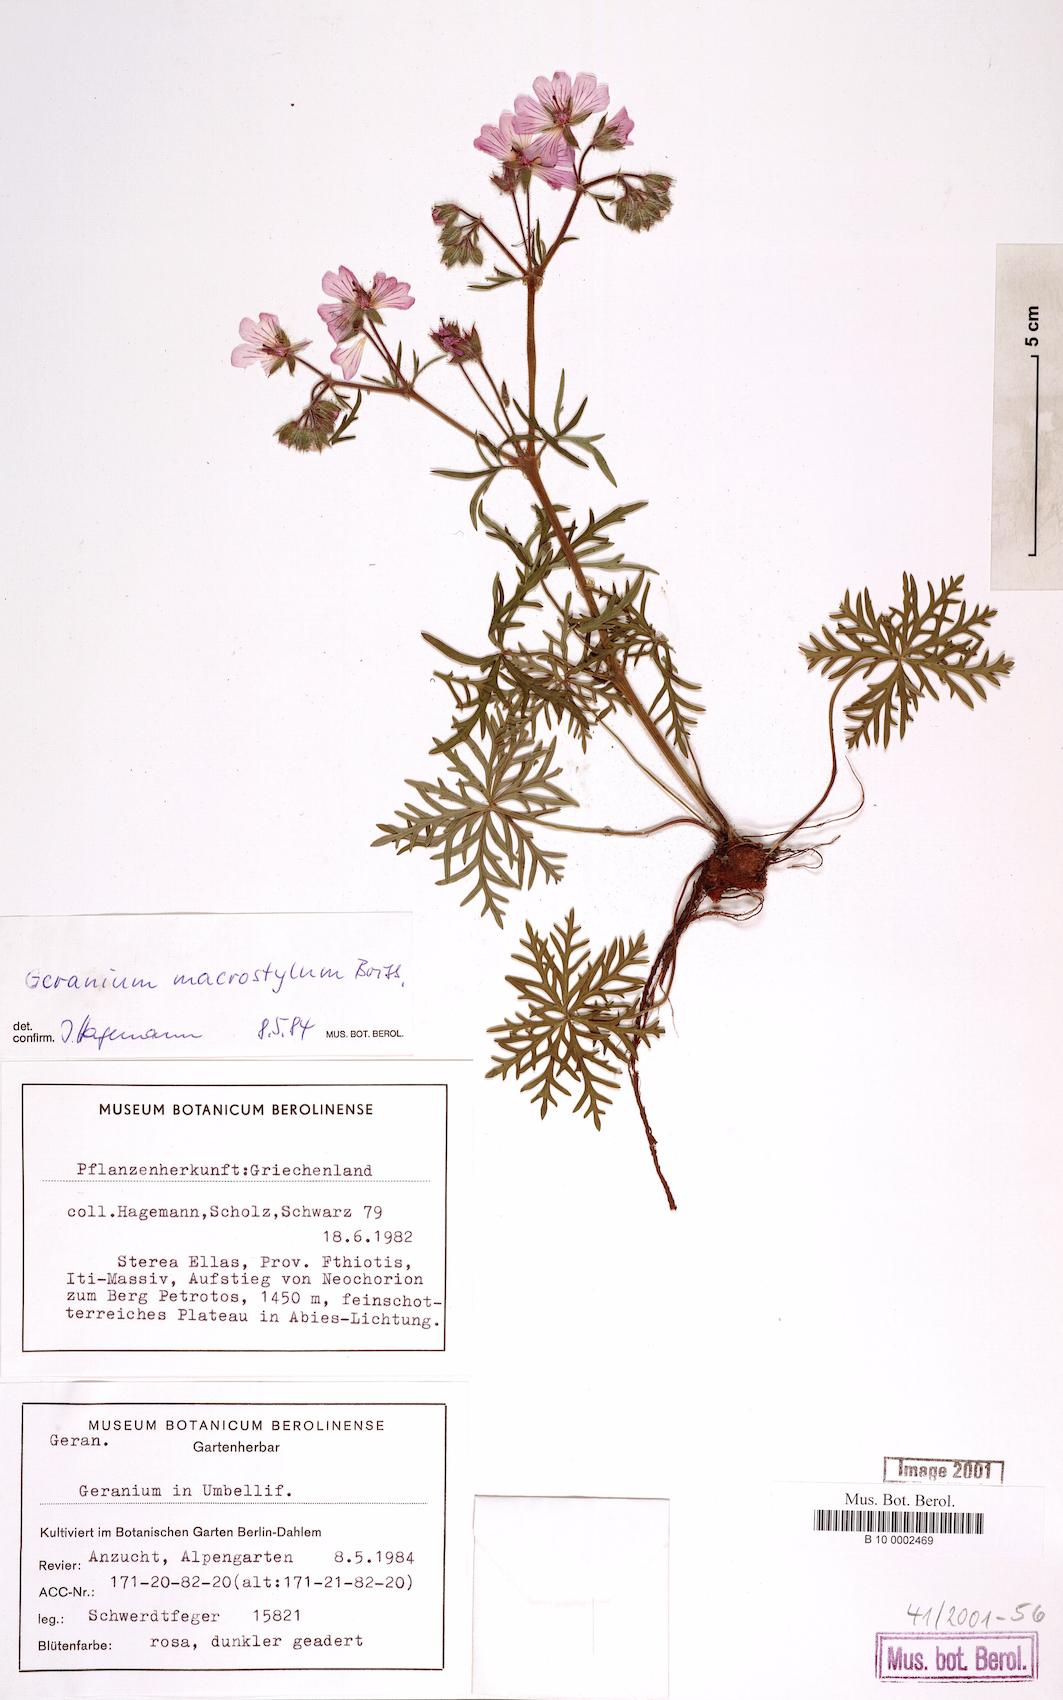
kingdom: Plantae
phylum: Tracheophyta
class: Magnoliopsida
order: Geraniales
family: Geraniaceae
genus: Geranium
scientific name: Geranium macrostylum
